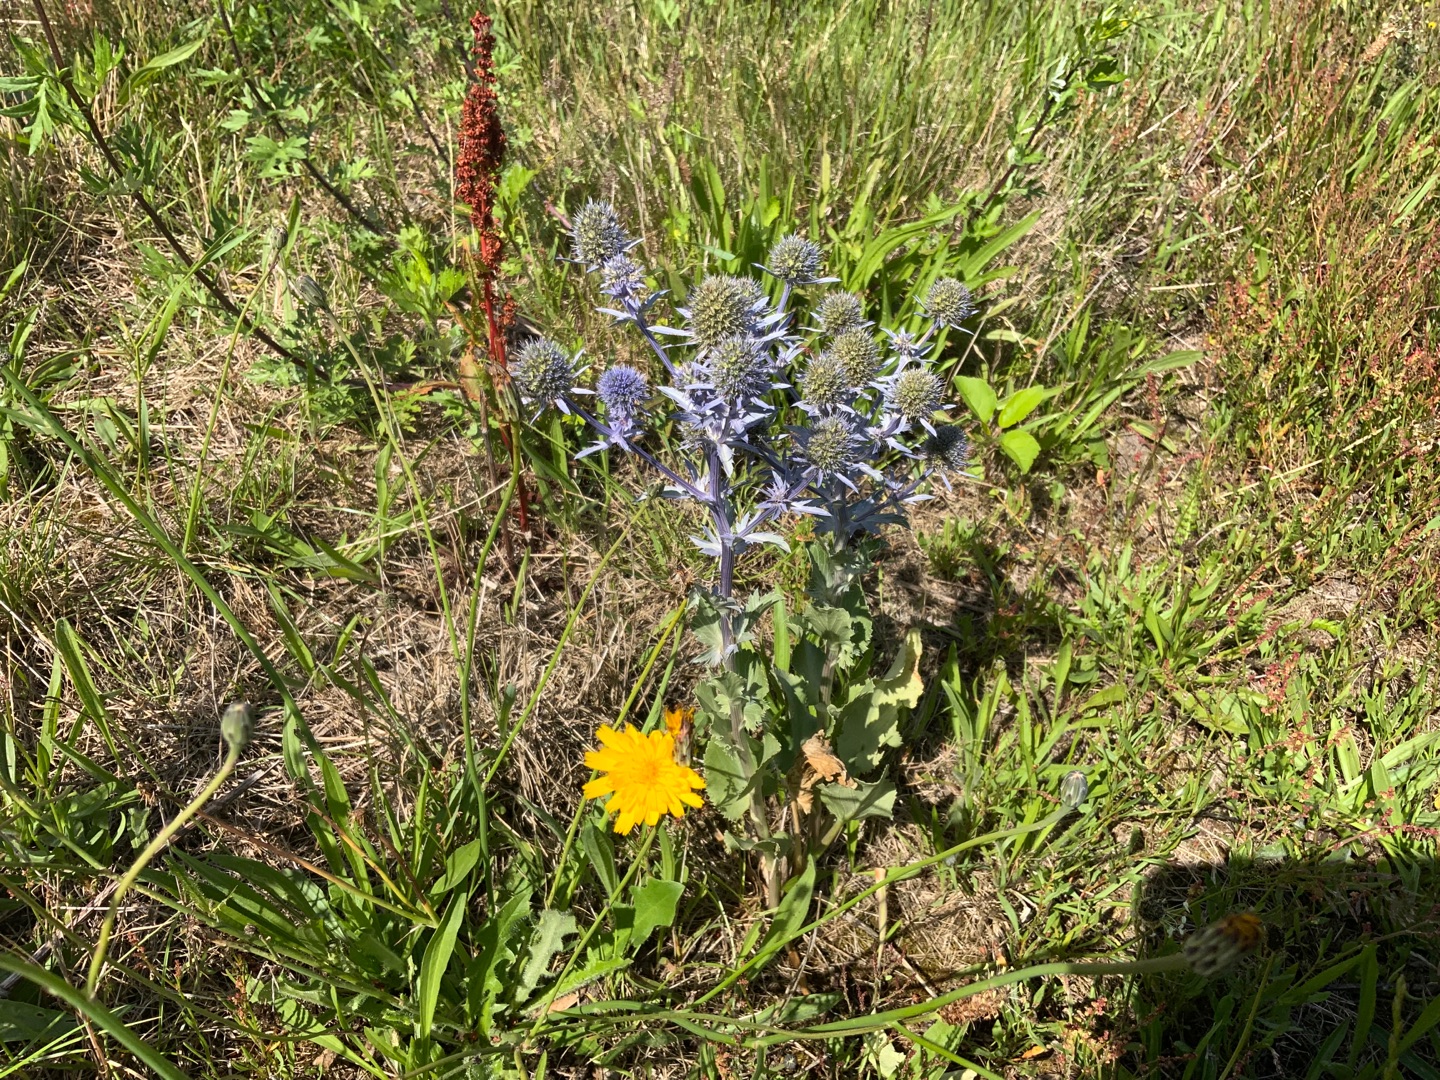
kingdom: Plantae
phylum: Tracheophyta
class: Magnoliopsida
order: Apiales
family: Apiaceae
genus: Eryngium
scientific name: Eryngium planum
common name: Russisk mandstro
